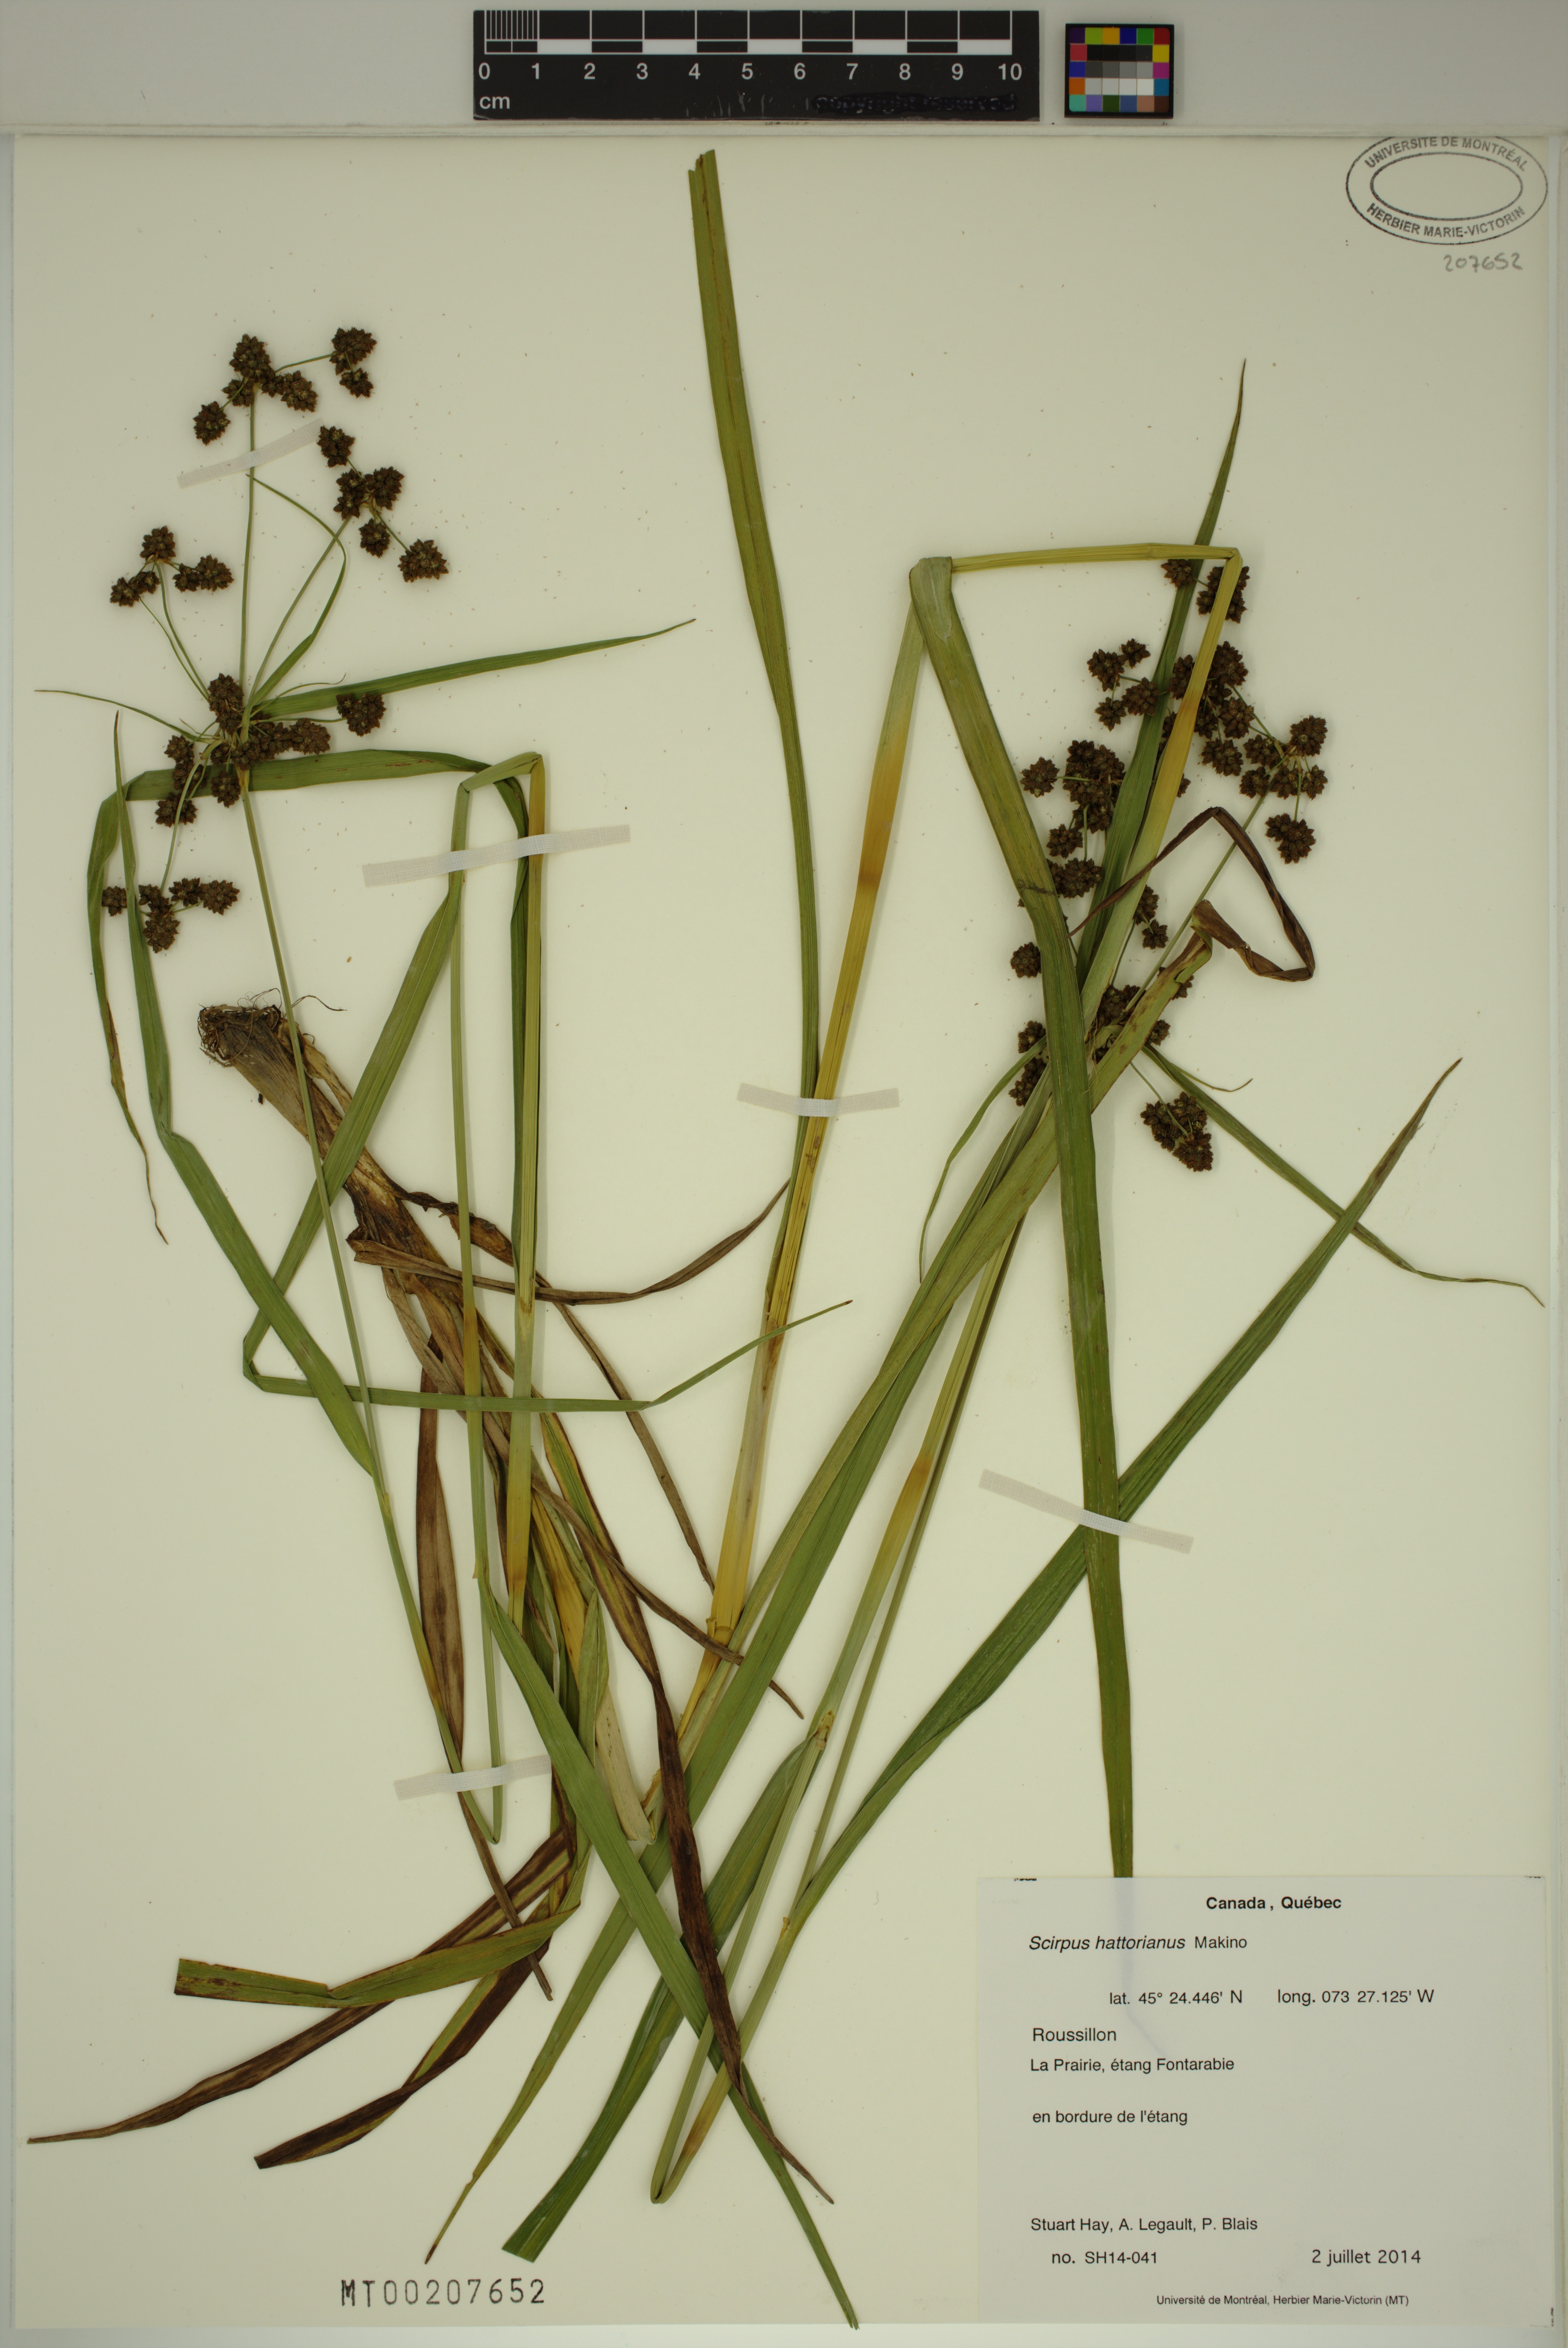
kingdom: Plantae
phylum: Tracheophyta
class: Liliopsida
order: Poales
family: Cyperaceae
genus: Scirpus
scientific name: Scirpus hattorianus
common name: Early dark-green bulrush
